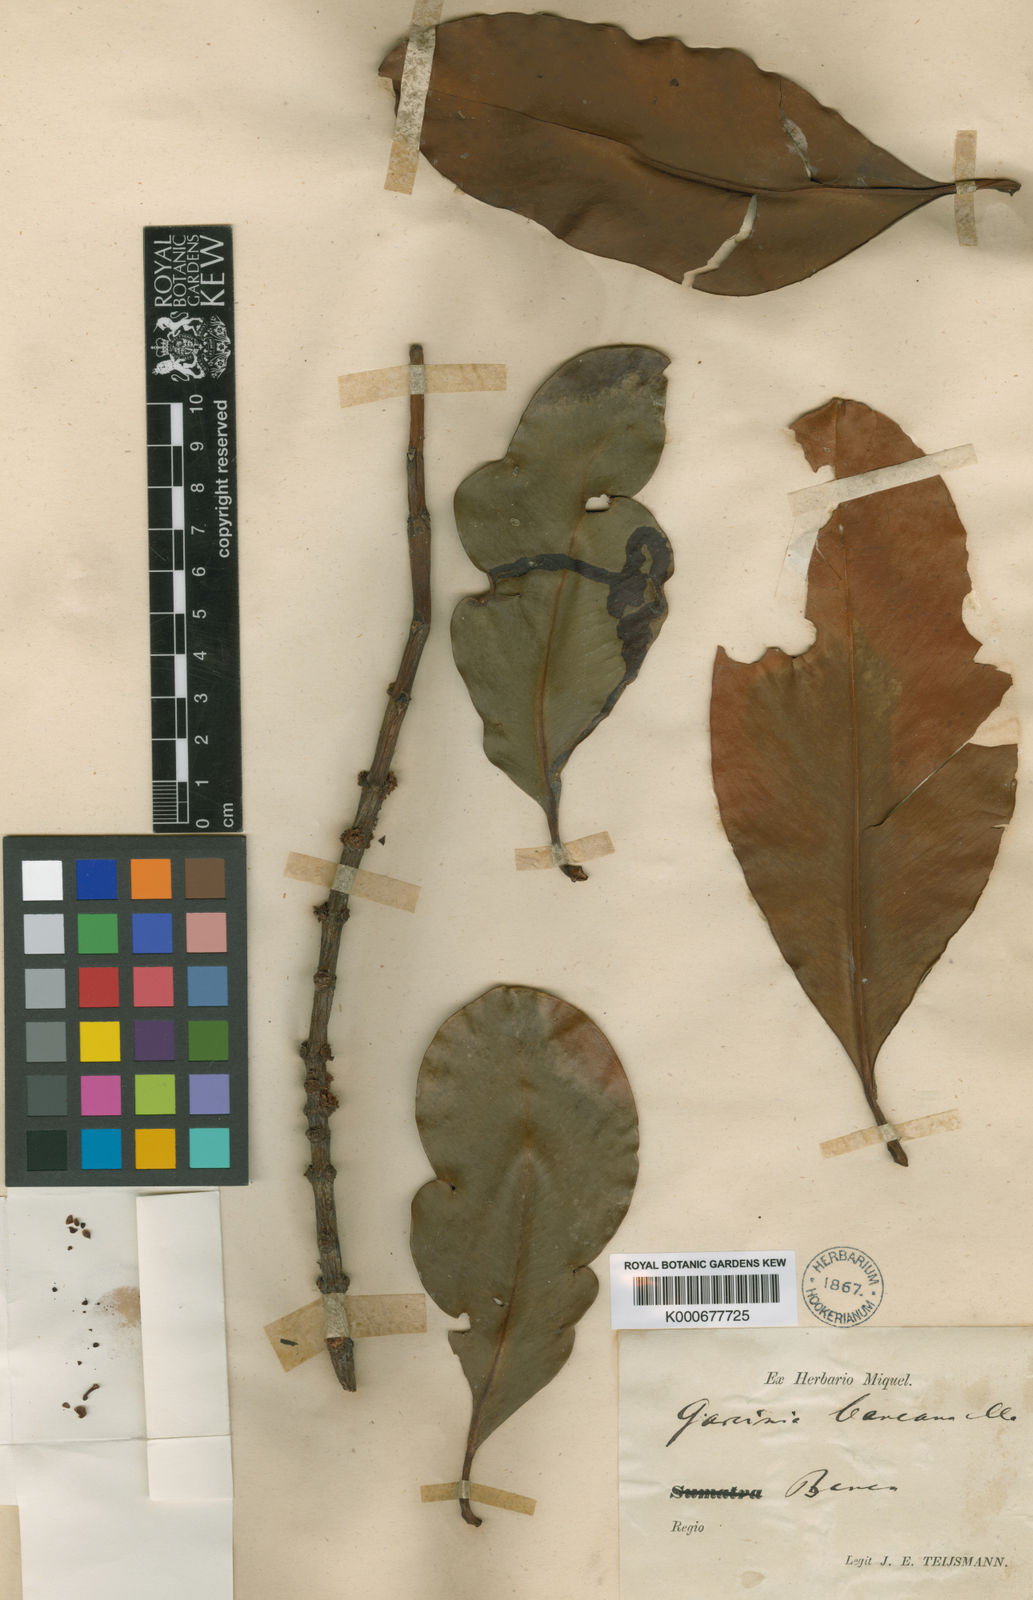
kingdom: Plantae
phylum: Tracheophyta
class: Magnoliopsida
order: Malpighiales
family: Clusiaceae
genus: Garcinia
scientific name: Garcinia bancana
